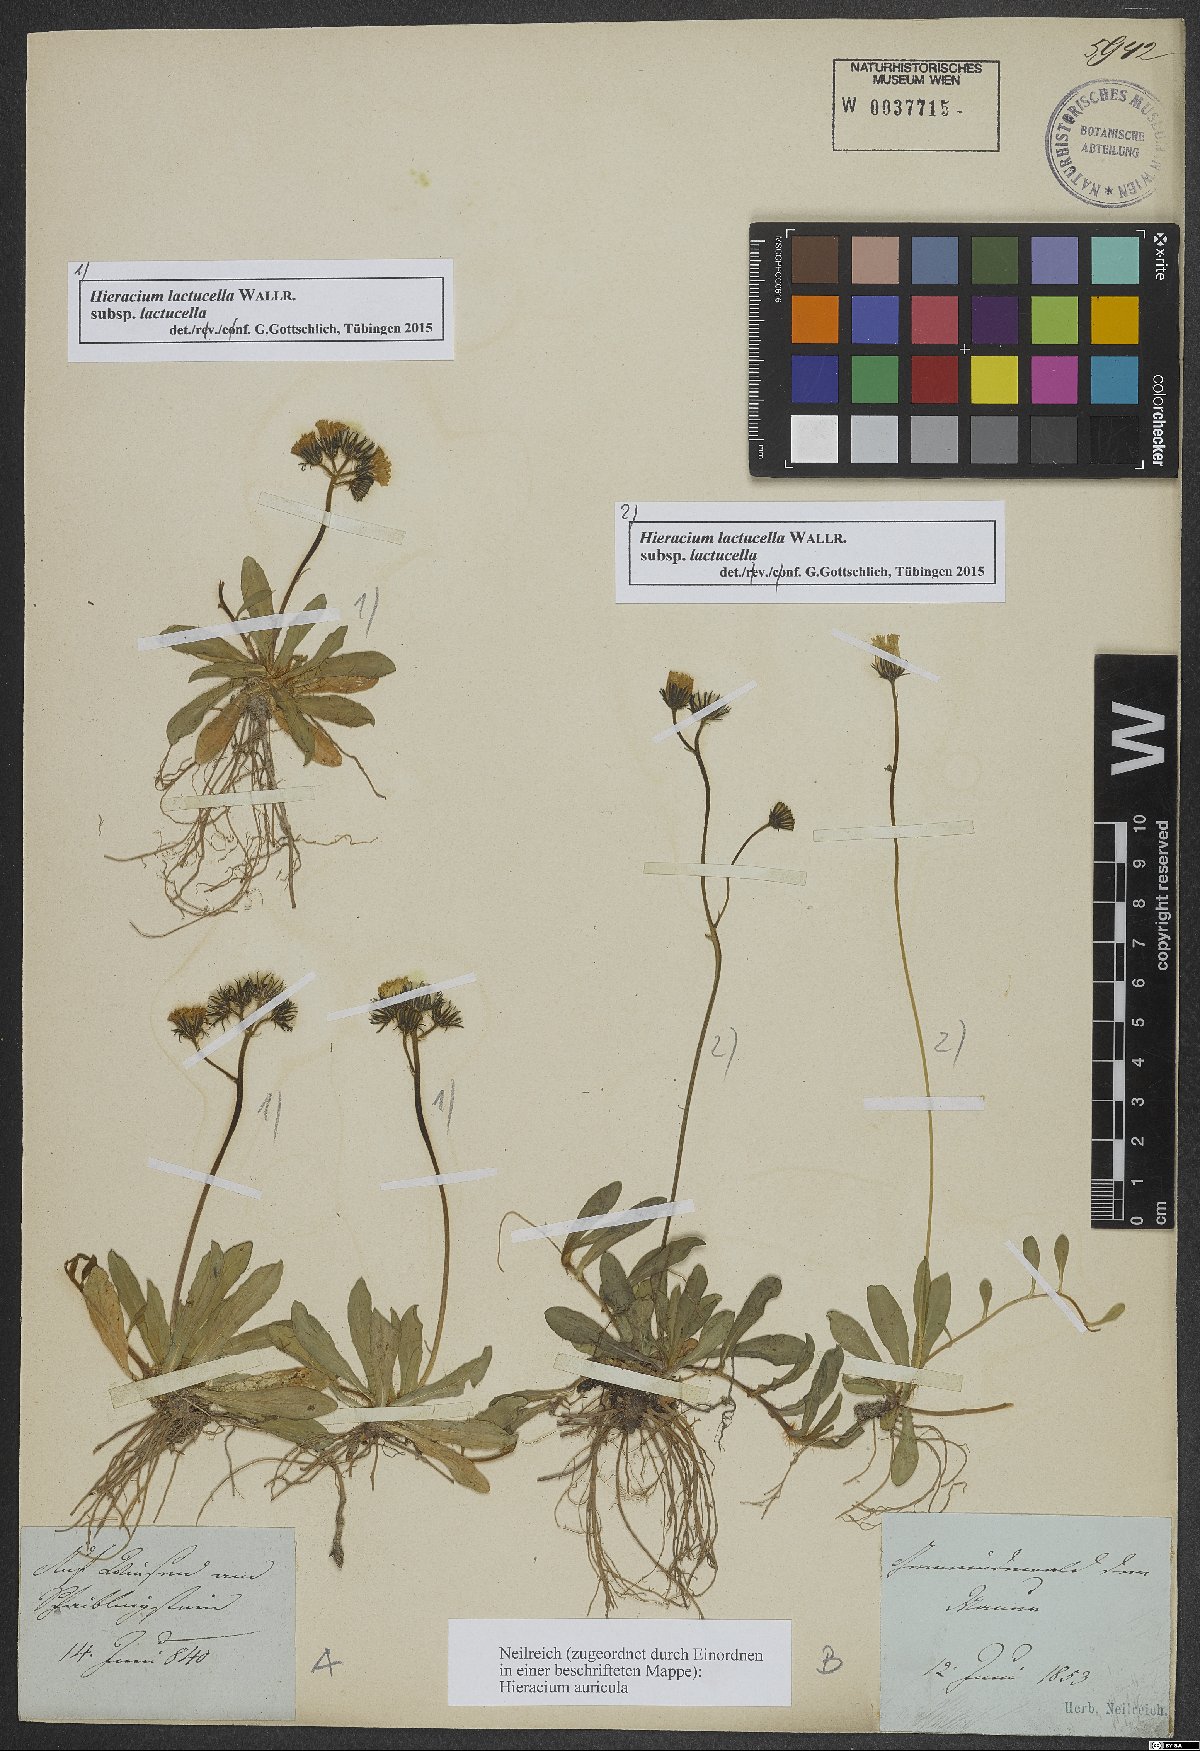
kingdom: Plantae
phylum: Tracheophyta
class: Magnoliopsida
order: Asterales
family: Asteraceae
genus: Pilosella
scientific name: Pilosella lactucella
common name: Glaucous fox-and-cubs
